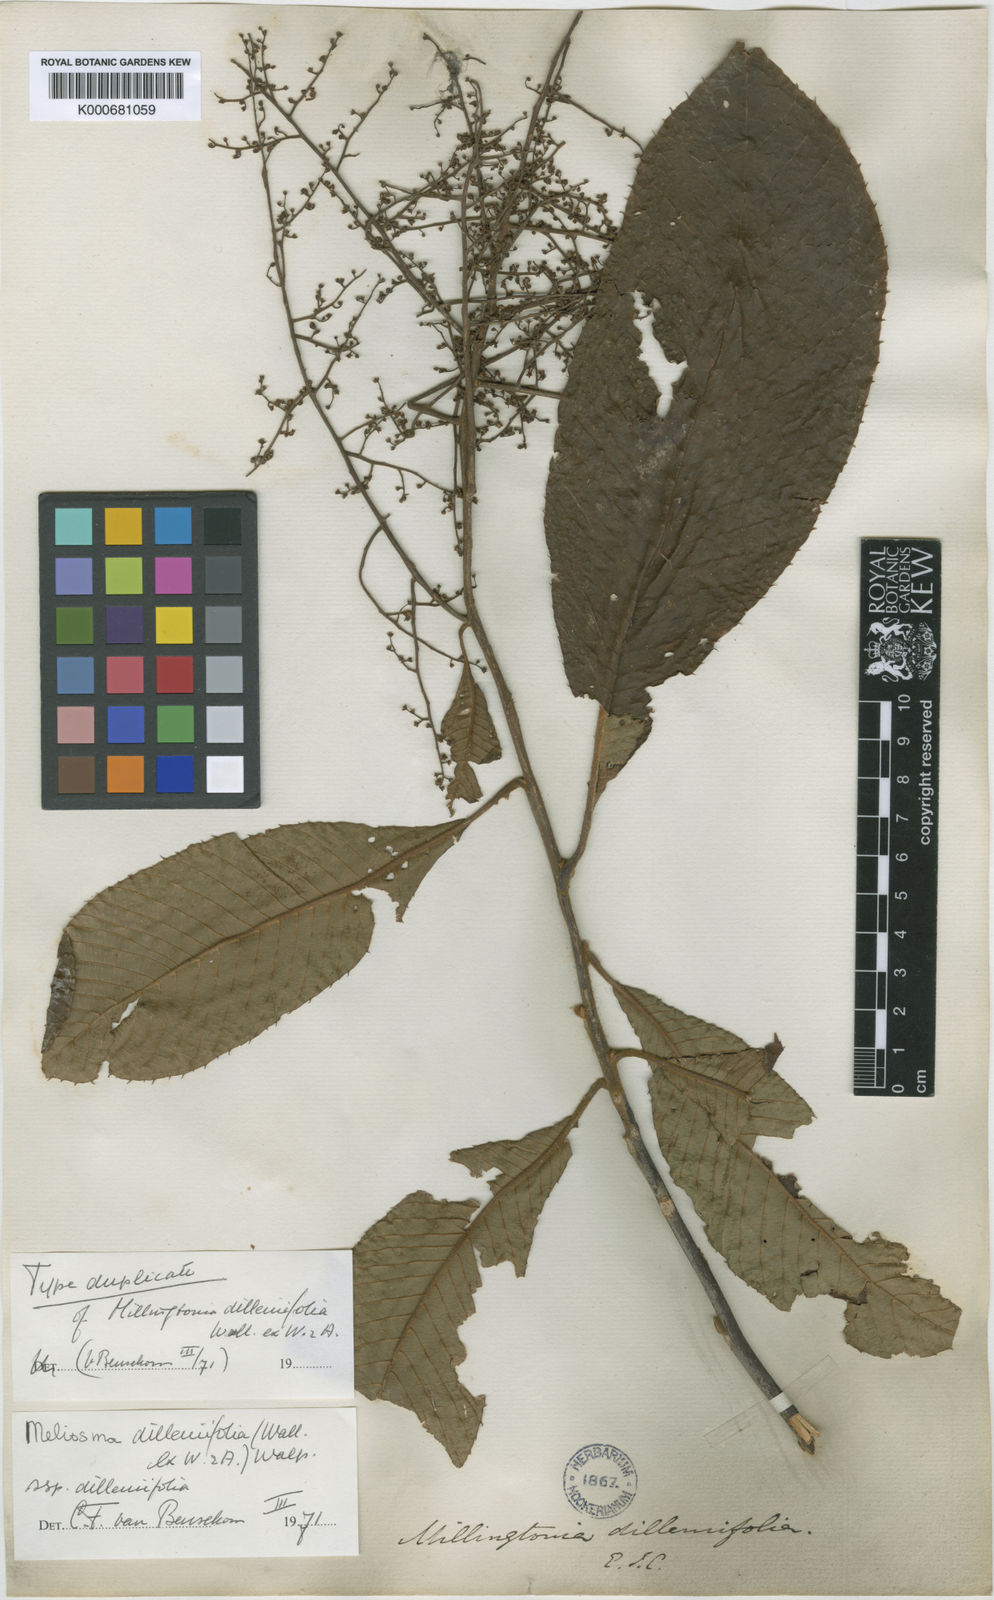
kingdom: Plantae
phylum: Tracheophyta
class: Magnoliopsida
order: Proteales
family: Sabiaceae
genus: Meliosma
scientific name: Meliosma dilleniifolia
